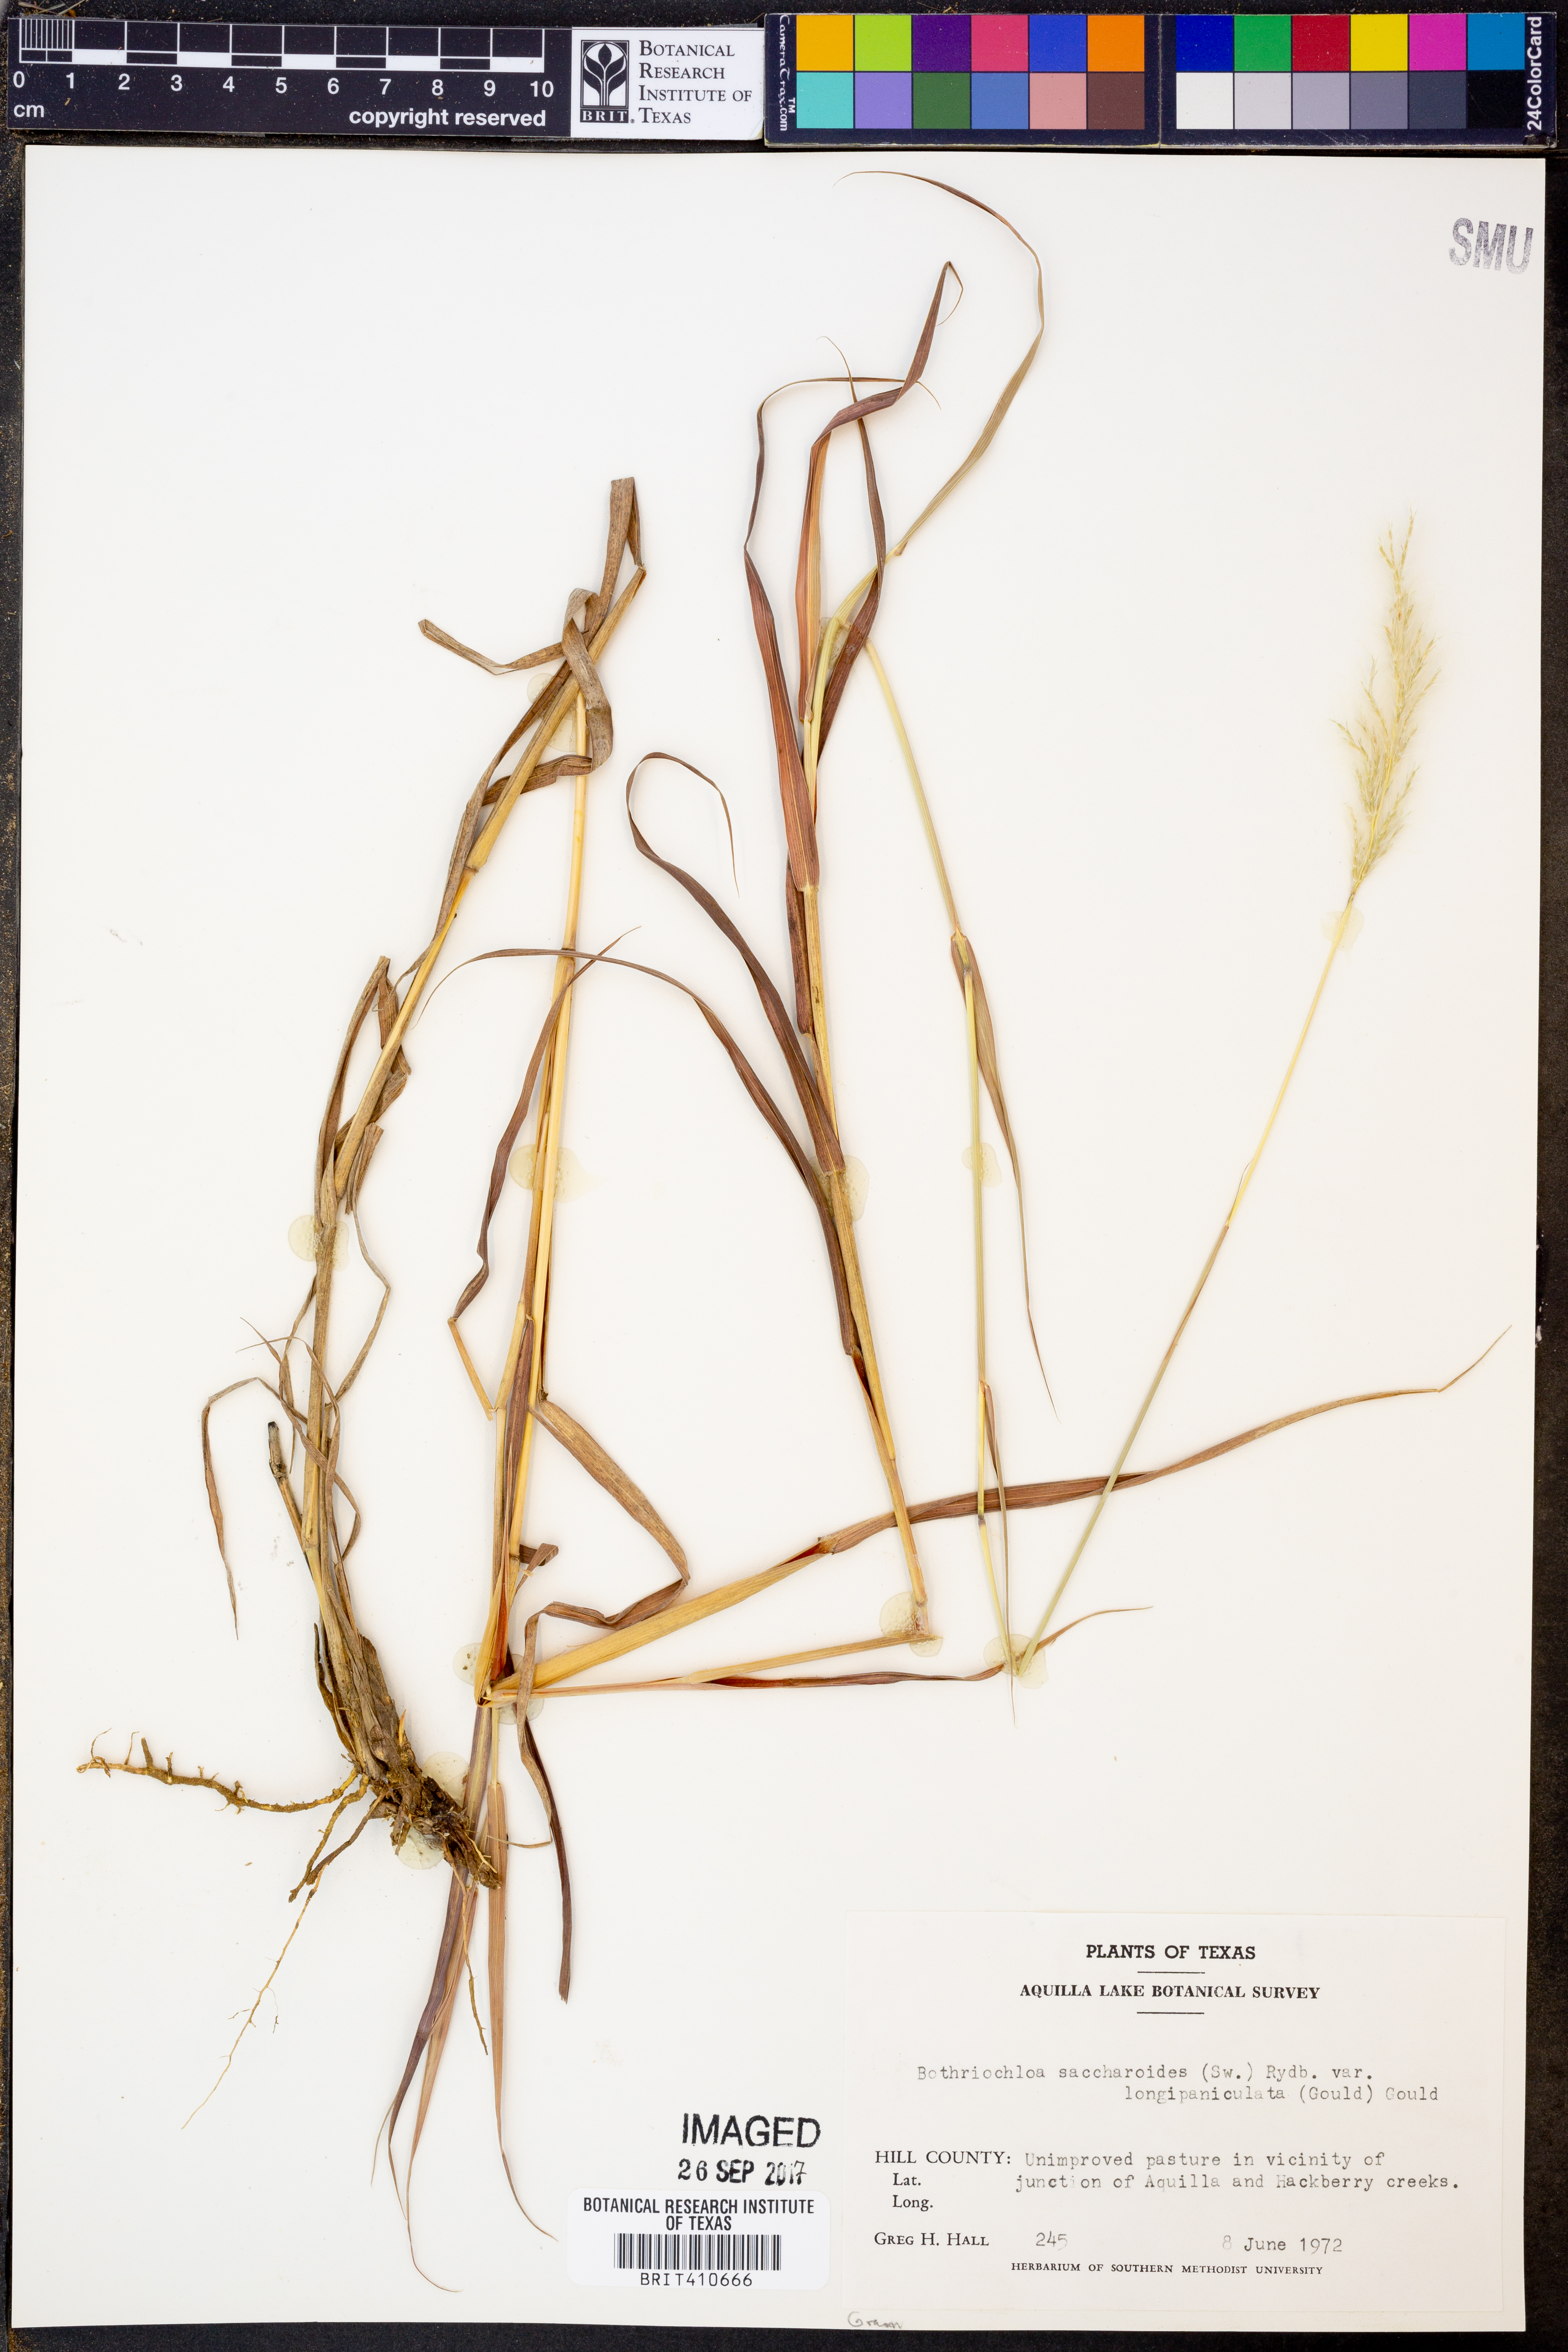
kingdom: Plantae
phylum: Tracheophyta
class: Liliopsida
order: Poales
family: Poaceae
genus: Bothriochloa
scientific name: Bothriochloa longipaniculata
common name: Longspike silver bluestem
